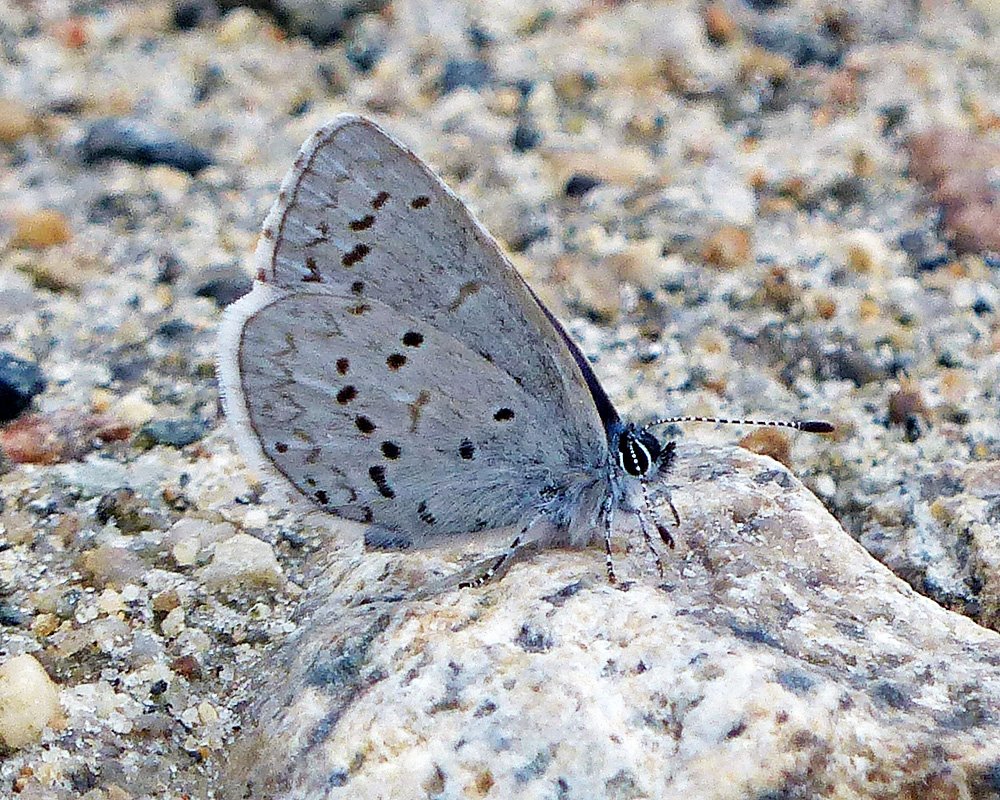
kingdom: Animalia
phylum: Arthropoda
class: Insecta
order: Lepidoptera
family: Lycaenidae
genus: Celastrina
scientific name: Celastrina ladon
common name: Echo Azure
